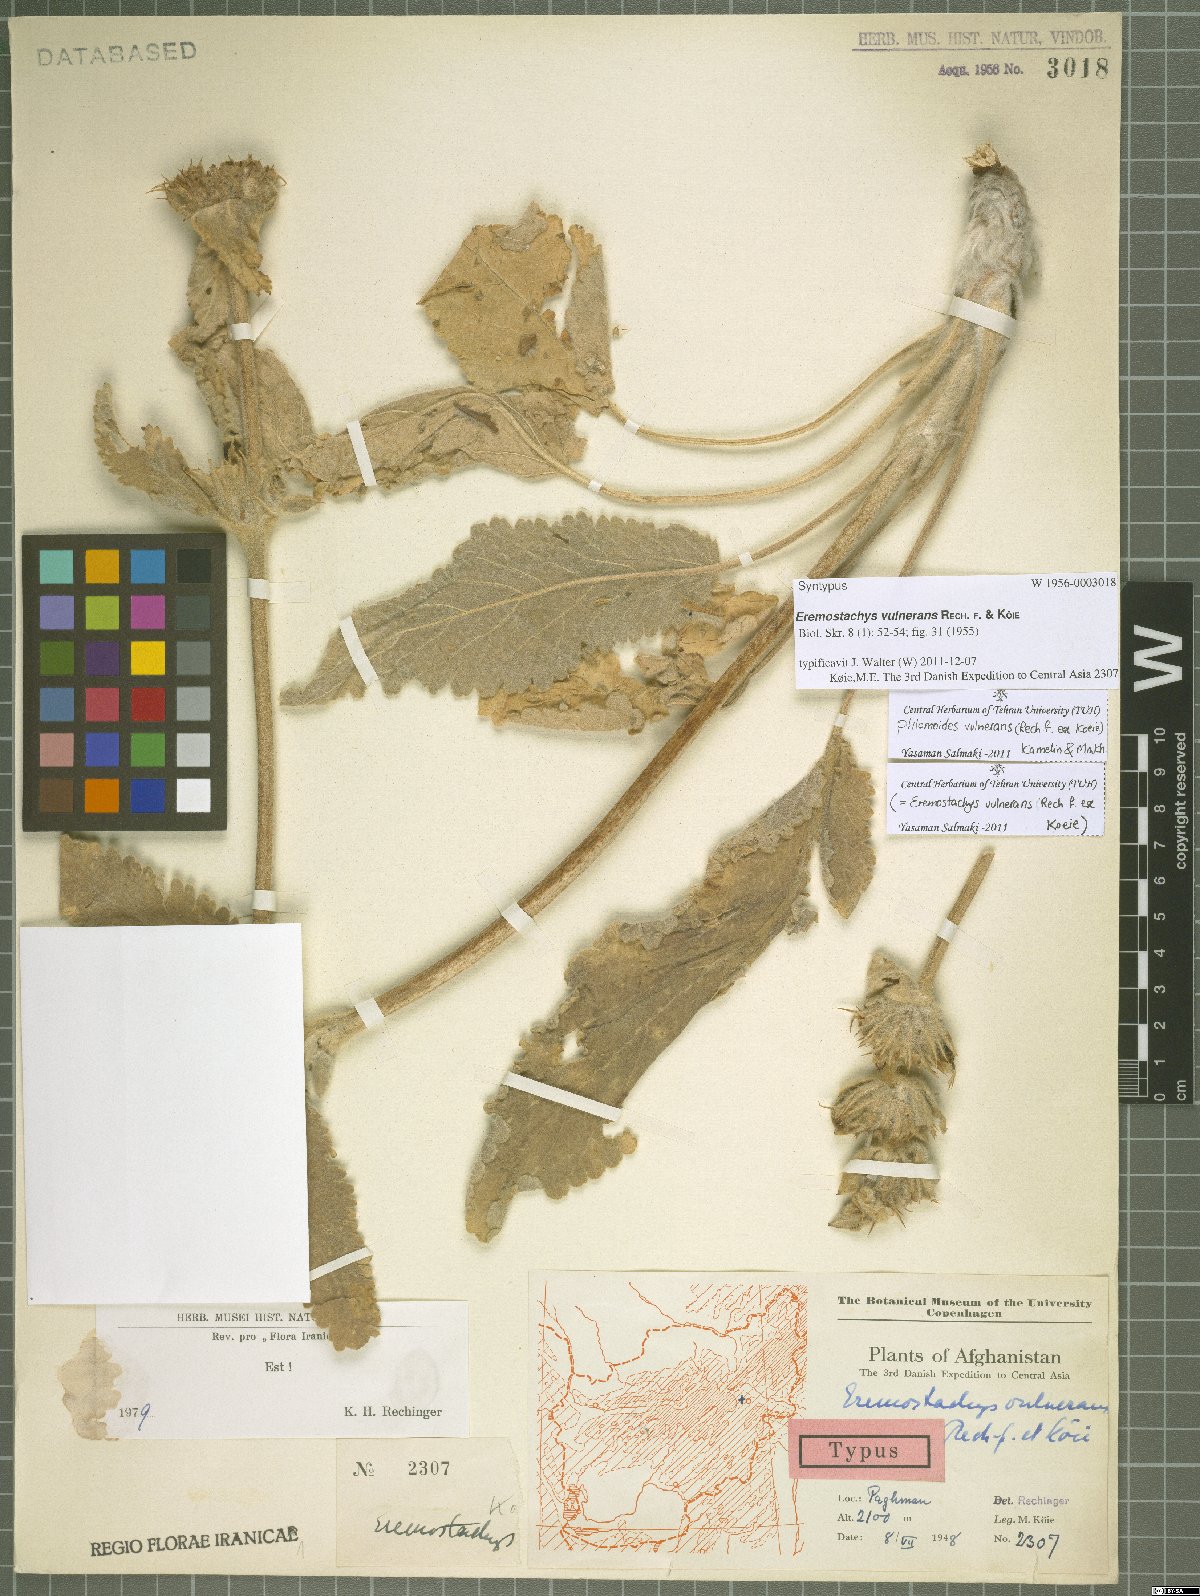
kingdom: Plantae
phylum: Tracheophyta
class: Magnoliopsida
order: Lamiales
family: Lamiaceae
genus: Phlomoides
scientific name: Phlomoides vulnerans
